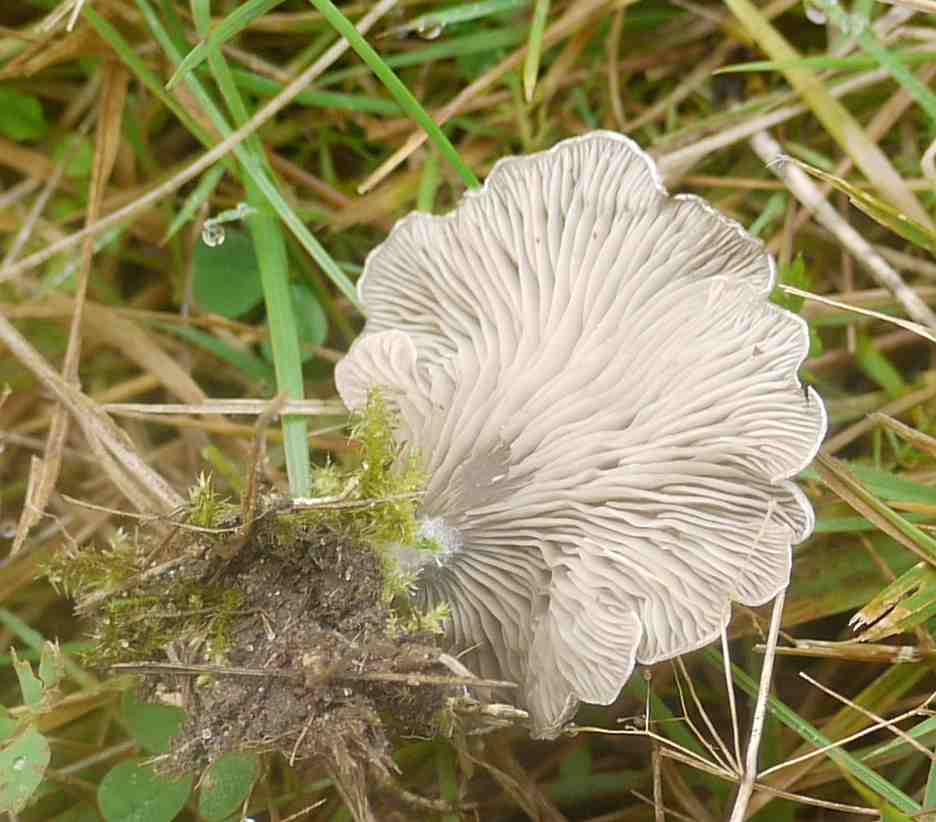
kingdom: Fungi
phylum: Basidiomycota
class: Agaricomycetes
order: Agaricales
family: Hygrophoraceae
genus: Arrhenia
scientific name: Arrhenia acerosa
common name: muslinge-fontænehat
